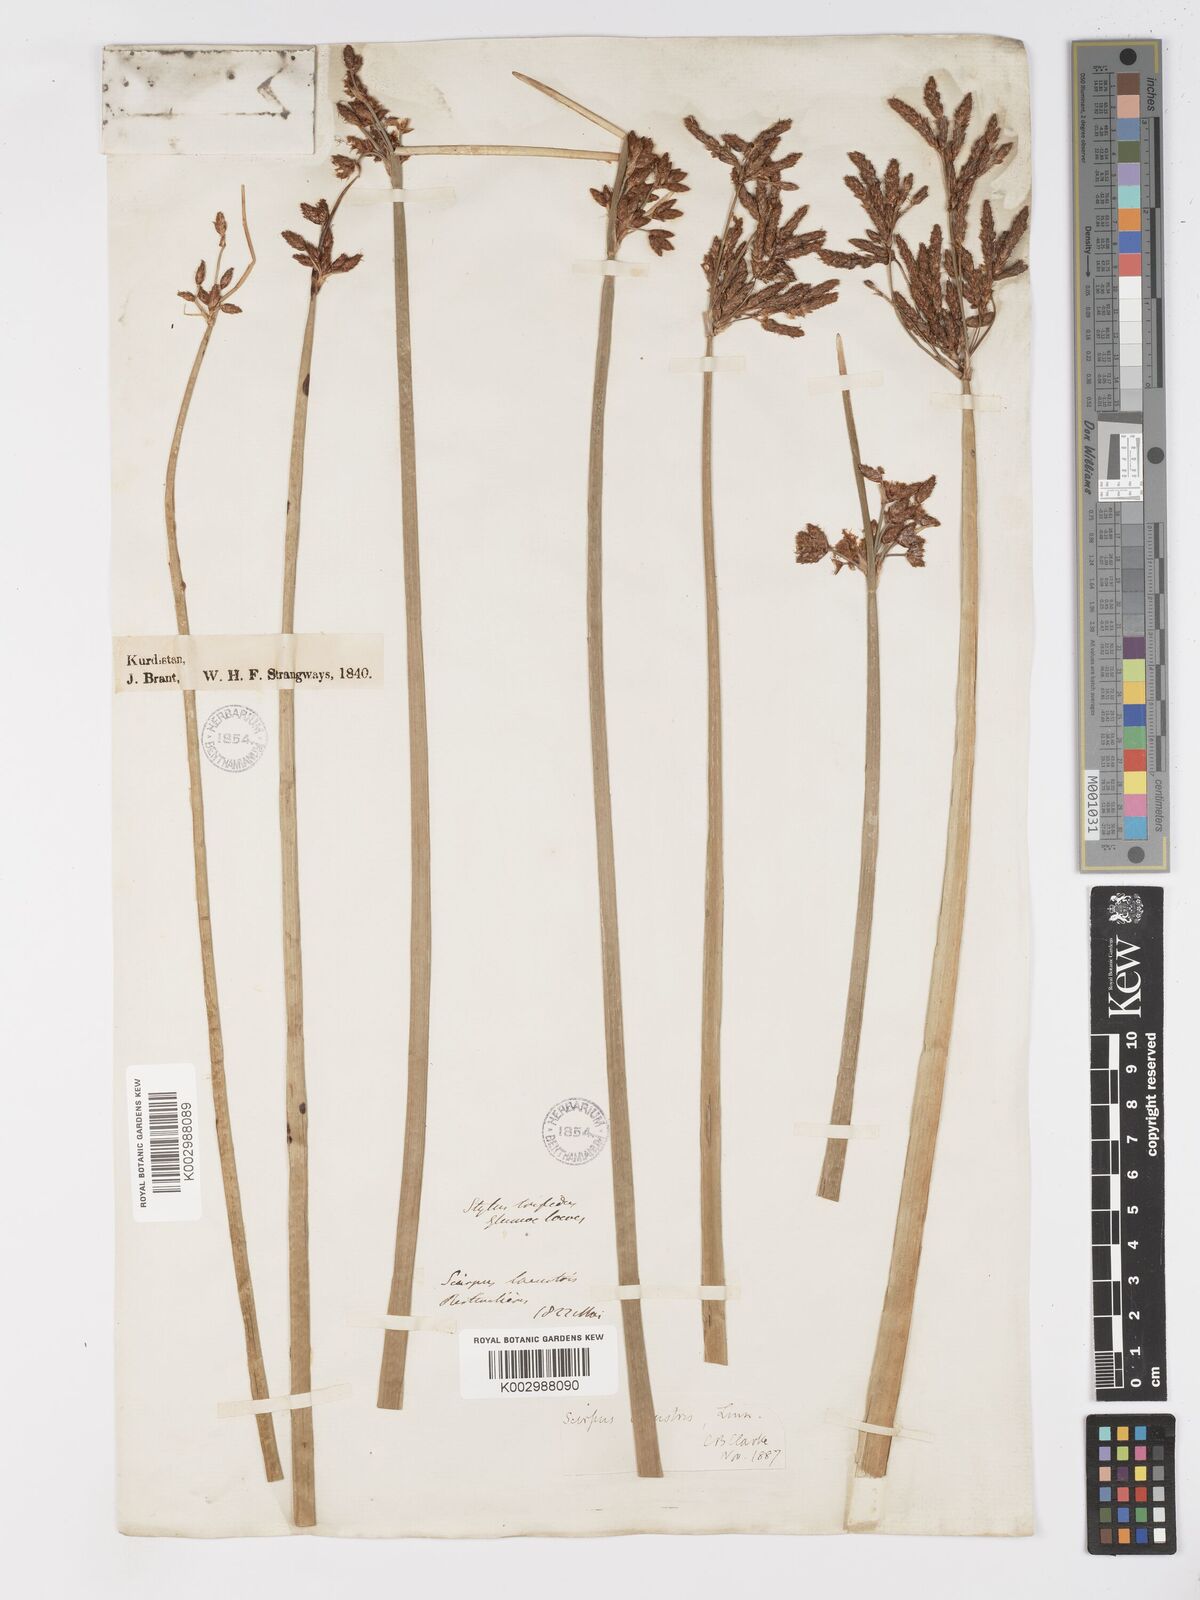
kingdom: Plantae
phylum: Tracheophyta
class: Liliopsida
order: Poales
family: Cyperaceae
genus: Schoenoplectus
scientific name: Schoenoplectus lacustris
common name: Common club-rush
